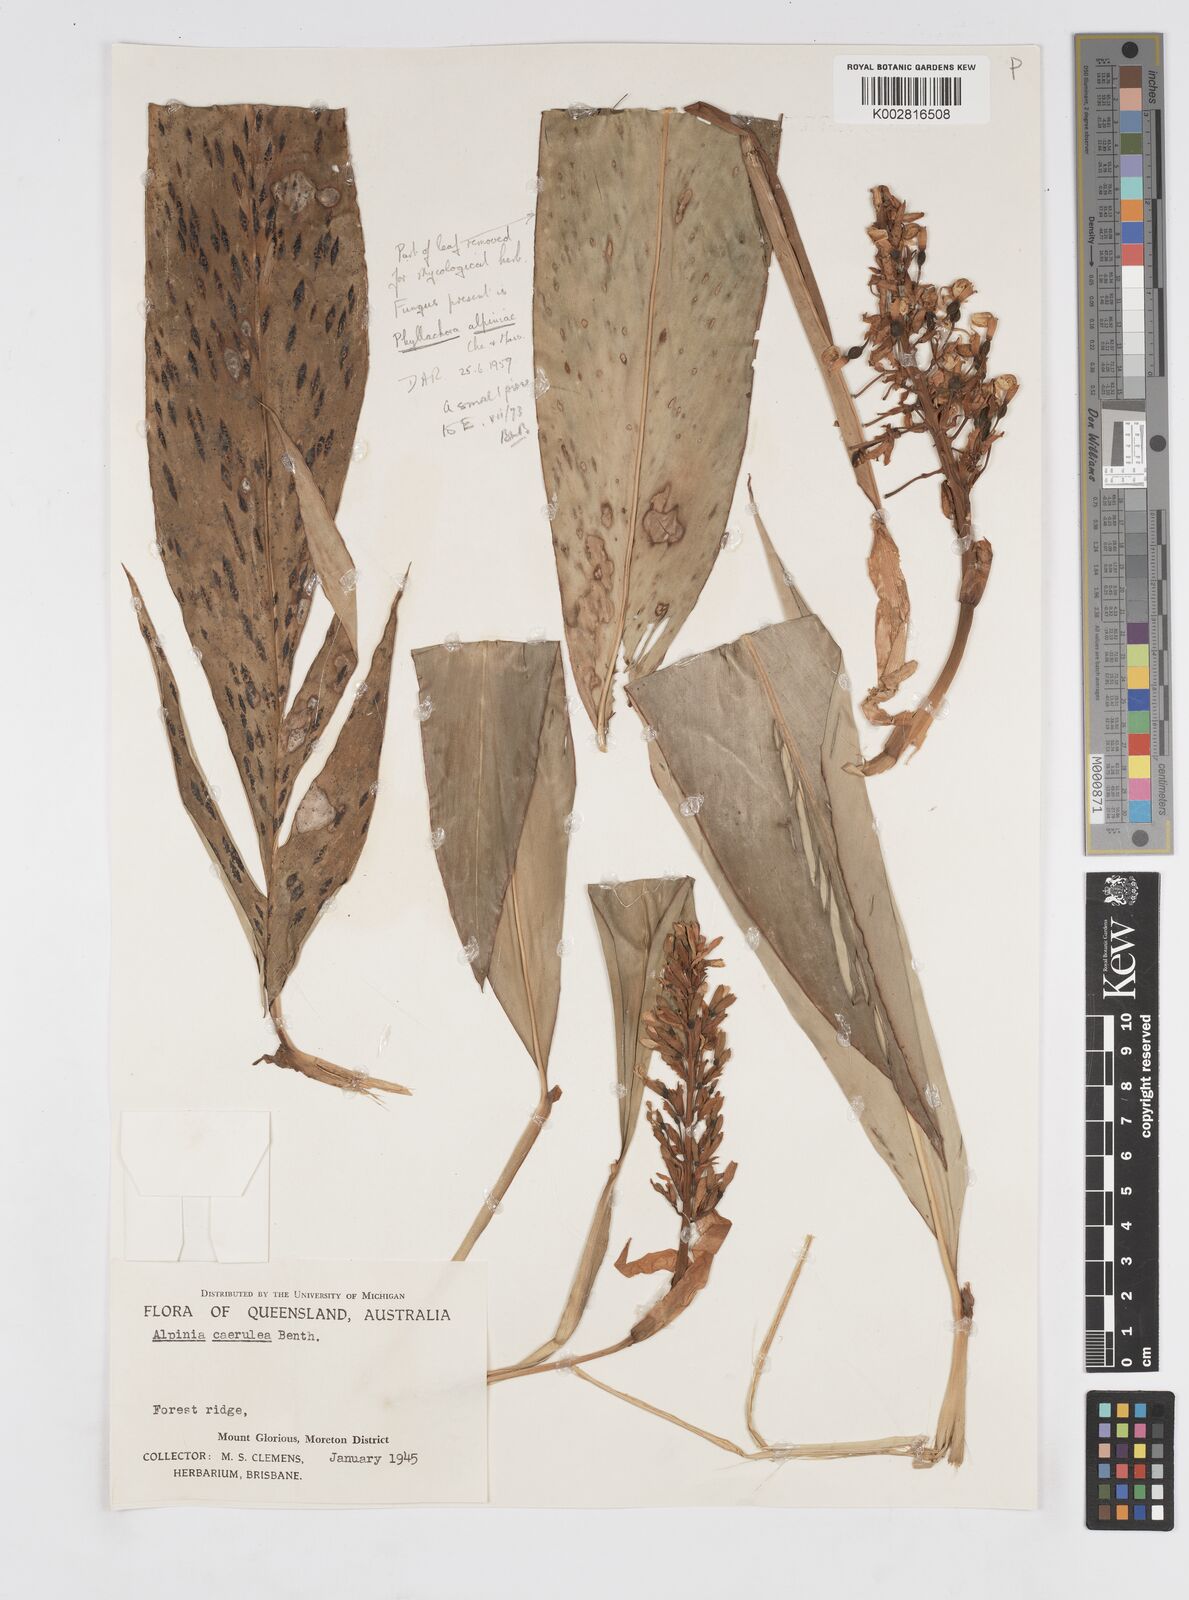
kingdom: Plantae
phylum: Tracheophyta
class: Liliopsida
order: Zingiberales
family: Zingiberaceae
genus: Alpinia
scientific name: Alpinia
